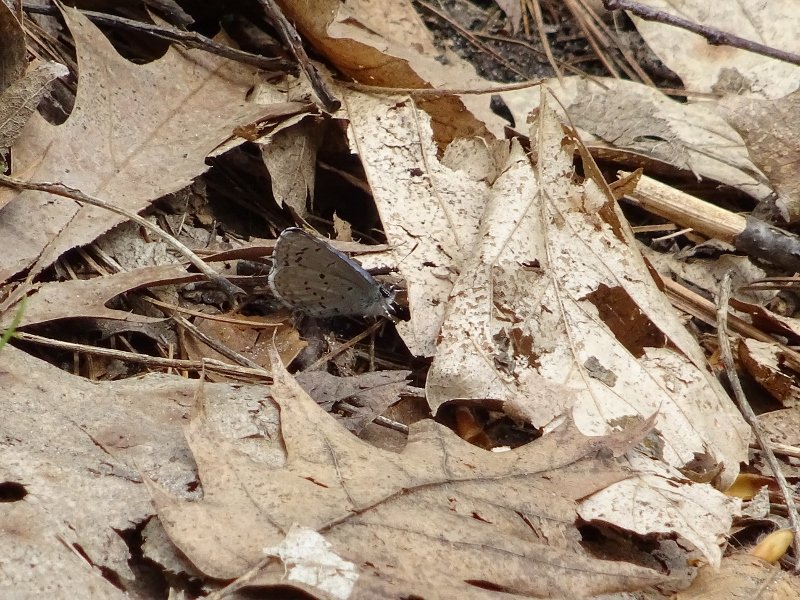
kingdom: Animalia
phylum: Arthropoda
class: Insecta
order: Lepidoptera
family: Lycaenidae
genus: Celastrina
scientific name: Celastrina
